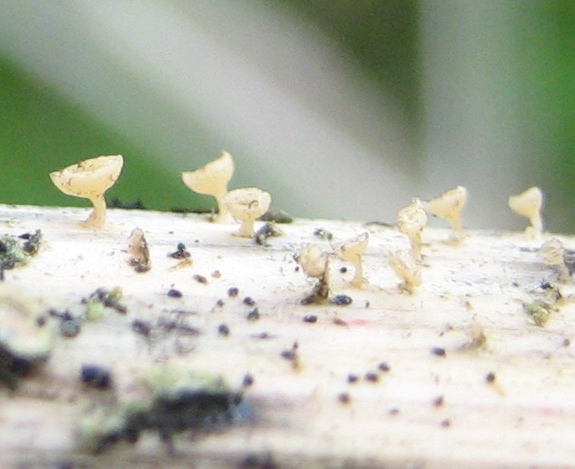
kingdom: Fungi
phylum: Ascomycota
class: Leotiomycetes
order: Helotiales
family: Helotiaceae
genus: Cyathicula
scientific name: Cyathicula cyathoidea
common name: pokal-stilkskive
